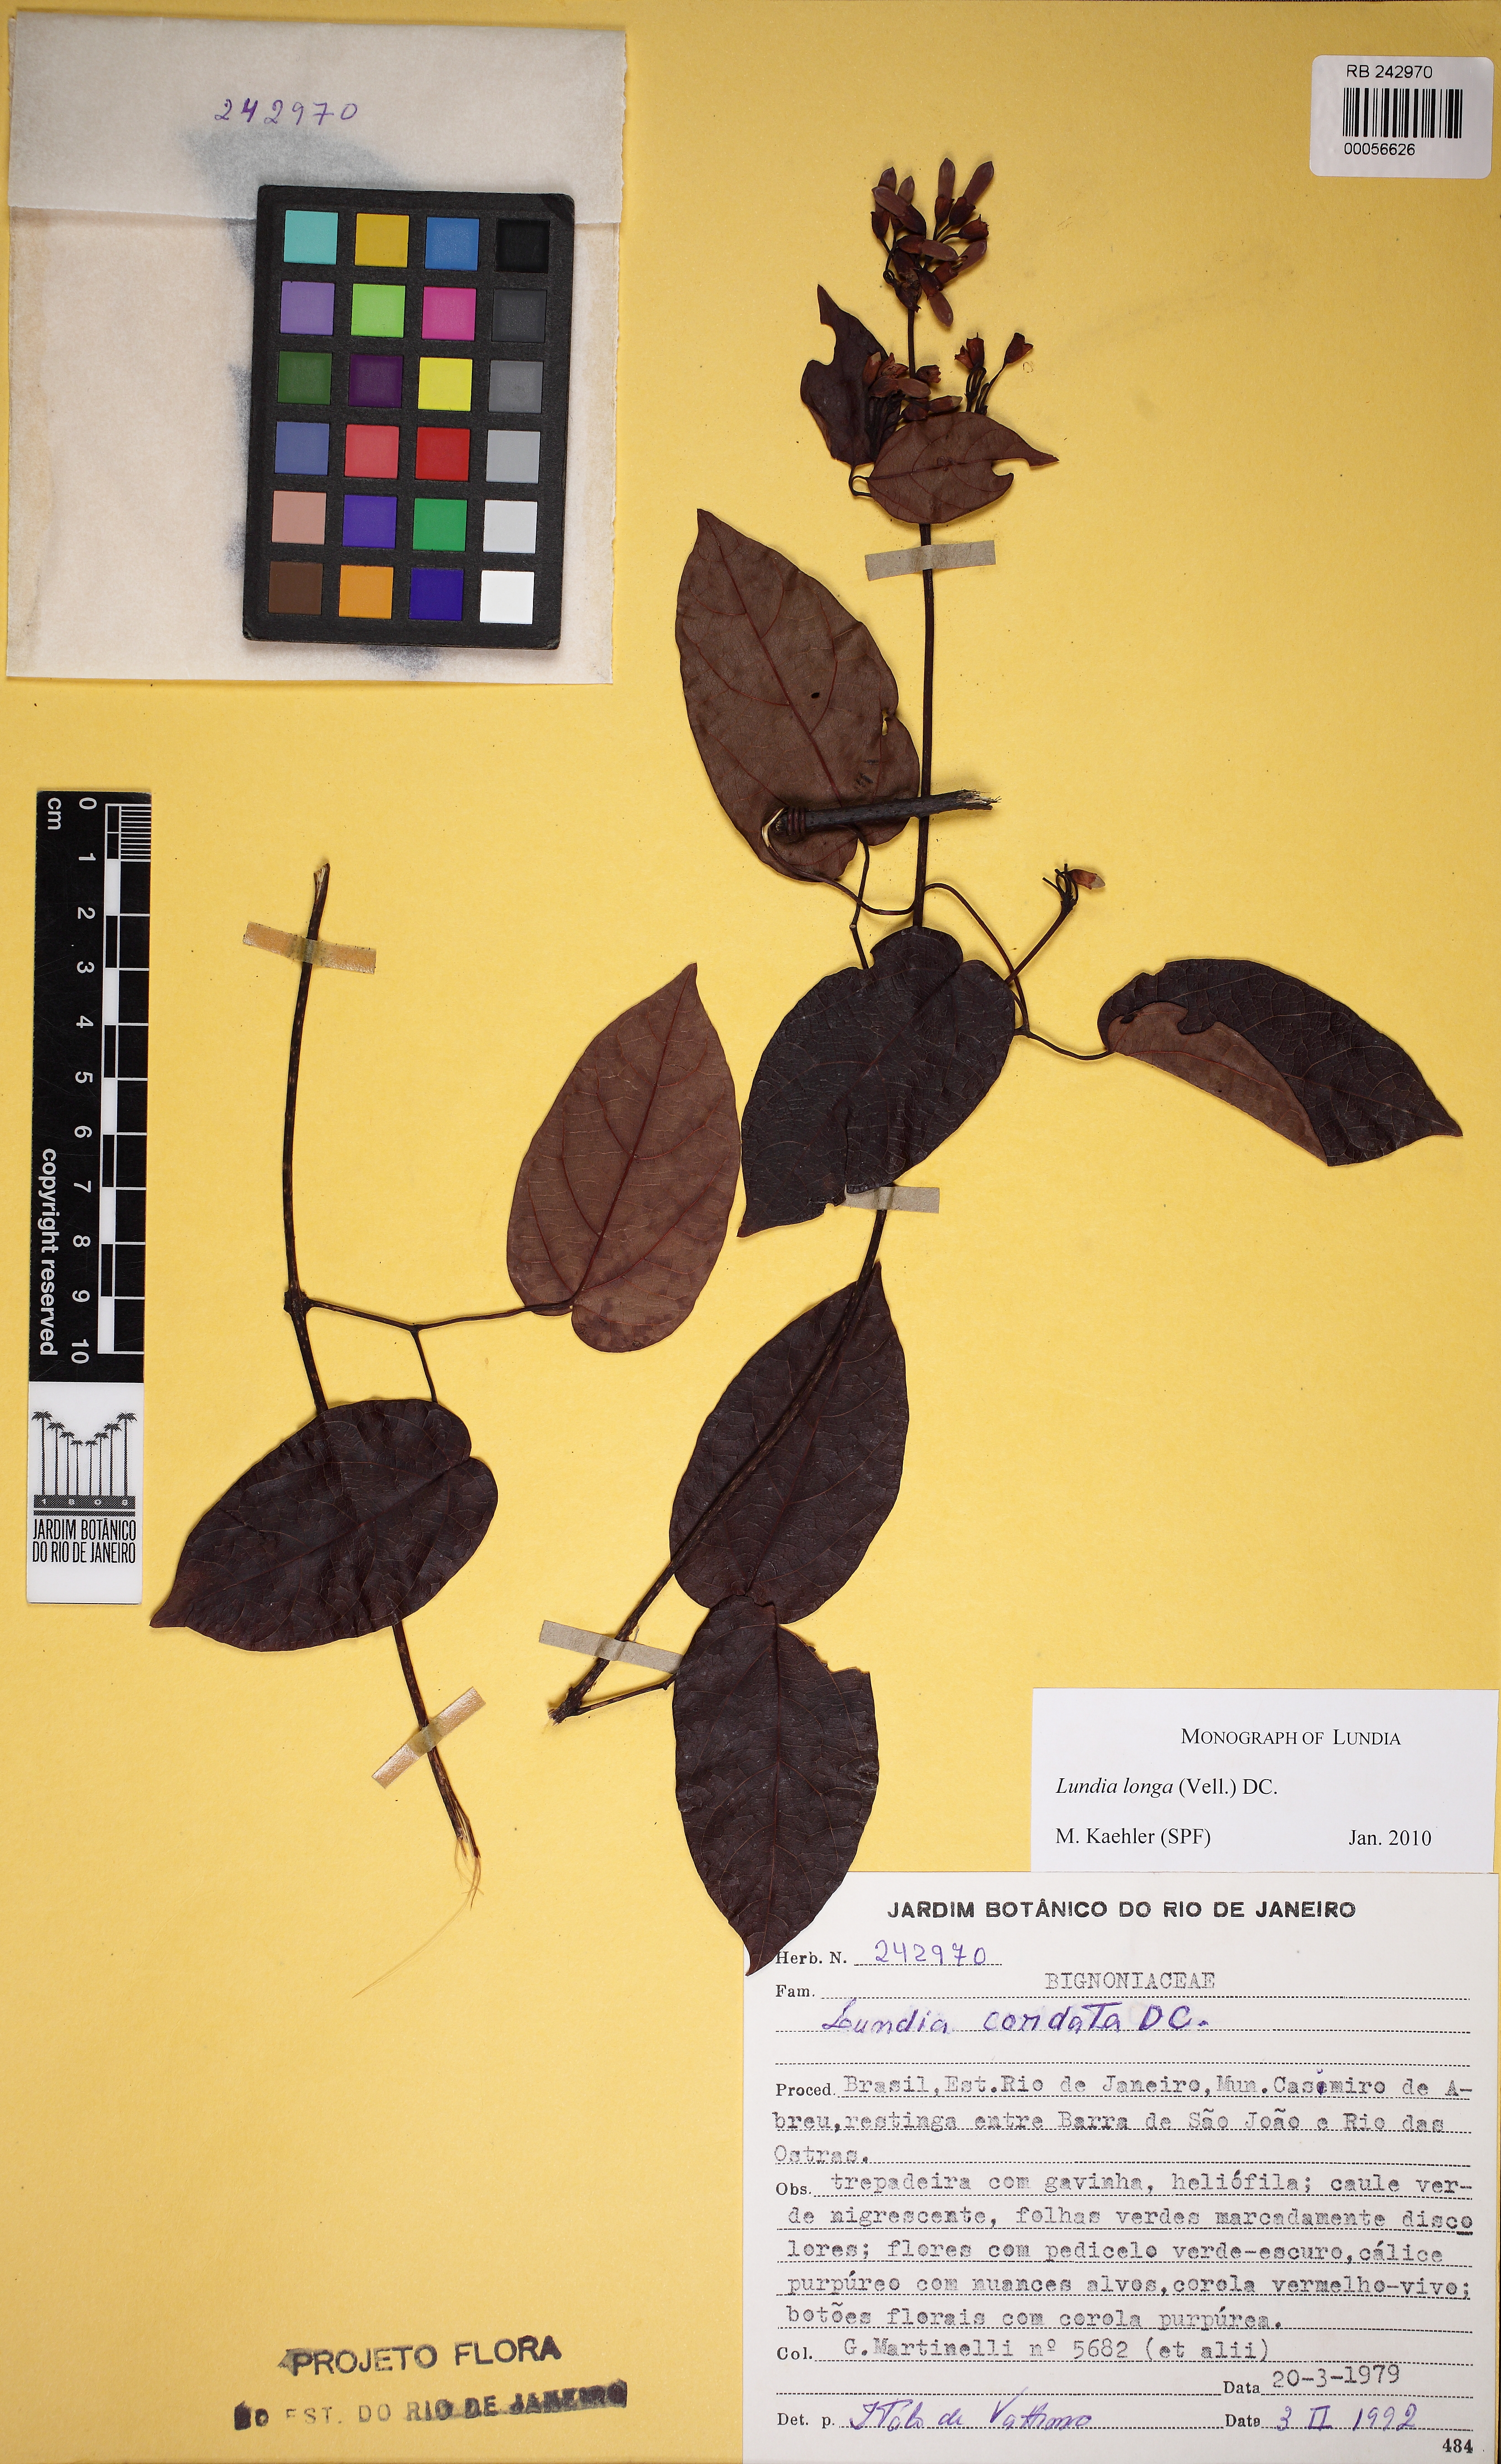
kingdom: Plantae
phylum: Tracheophyta
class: Magnoliopsida
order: Lamiales
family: Bignoniaceae
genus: Lundia
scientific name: Lundia longa
